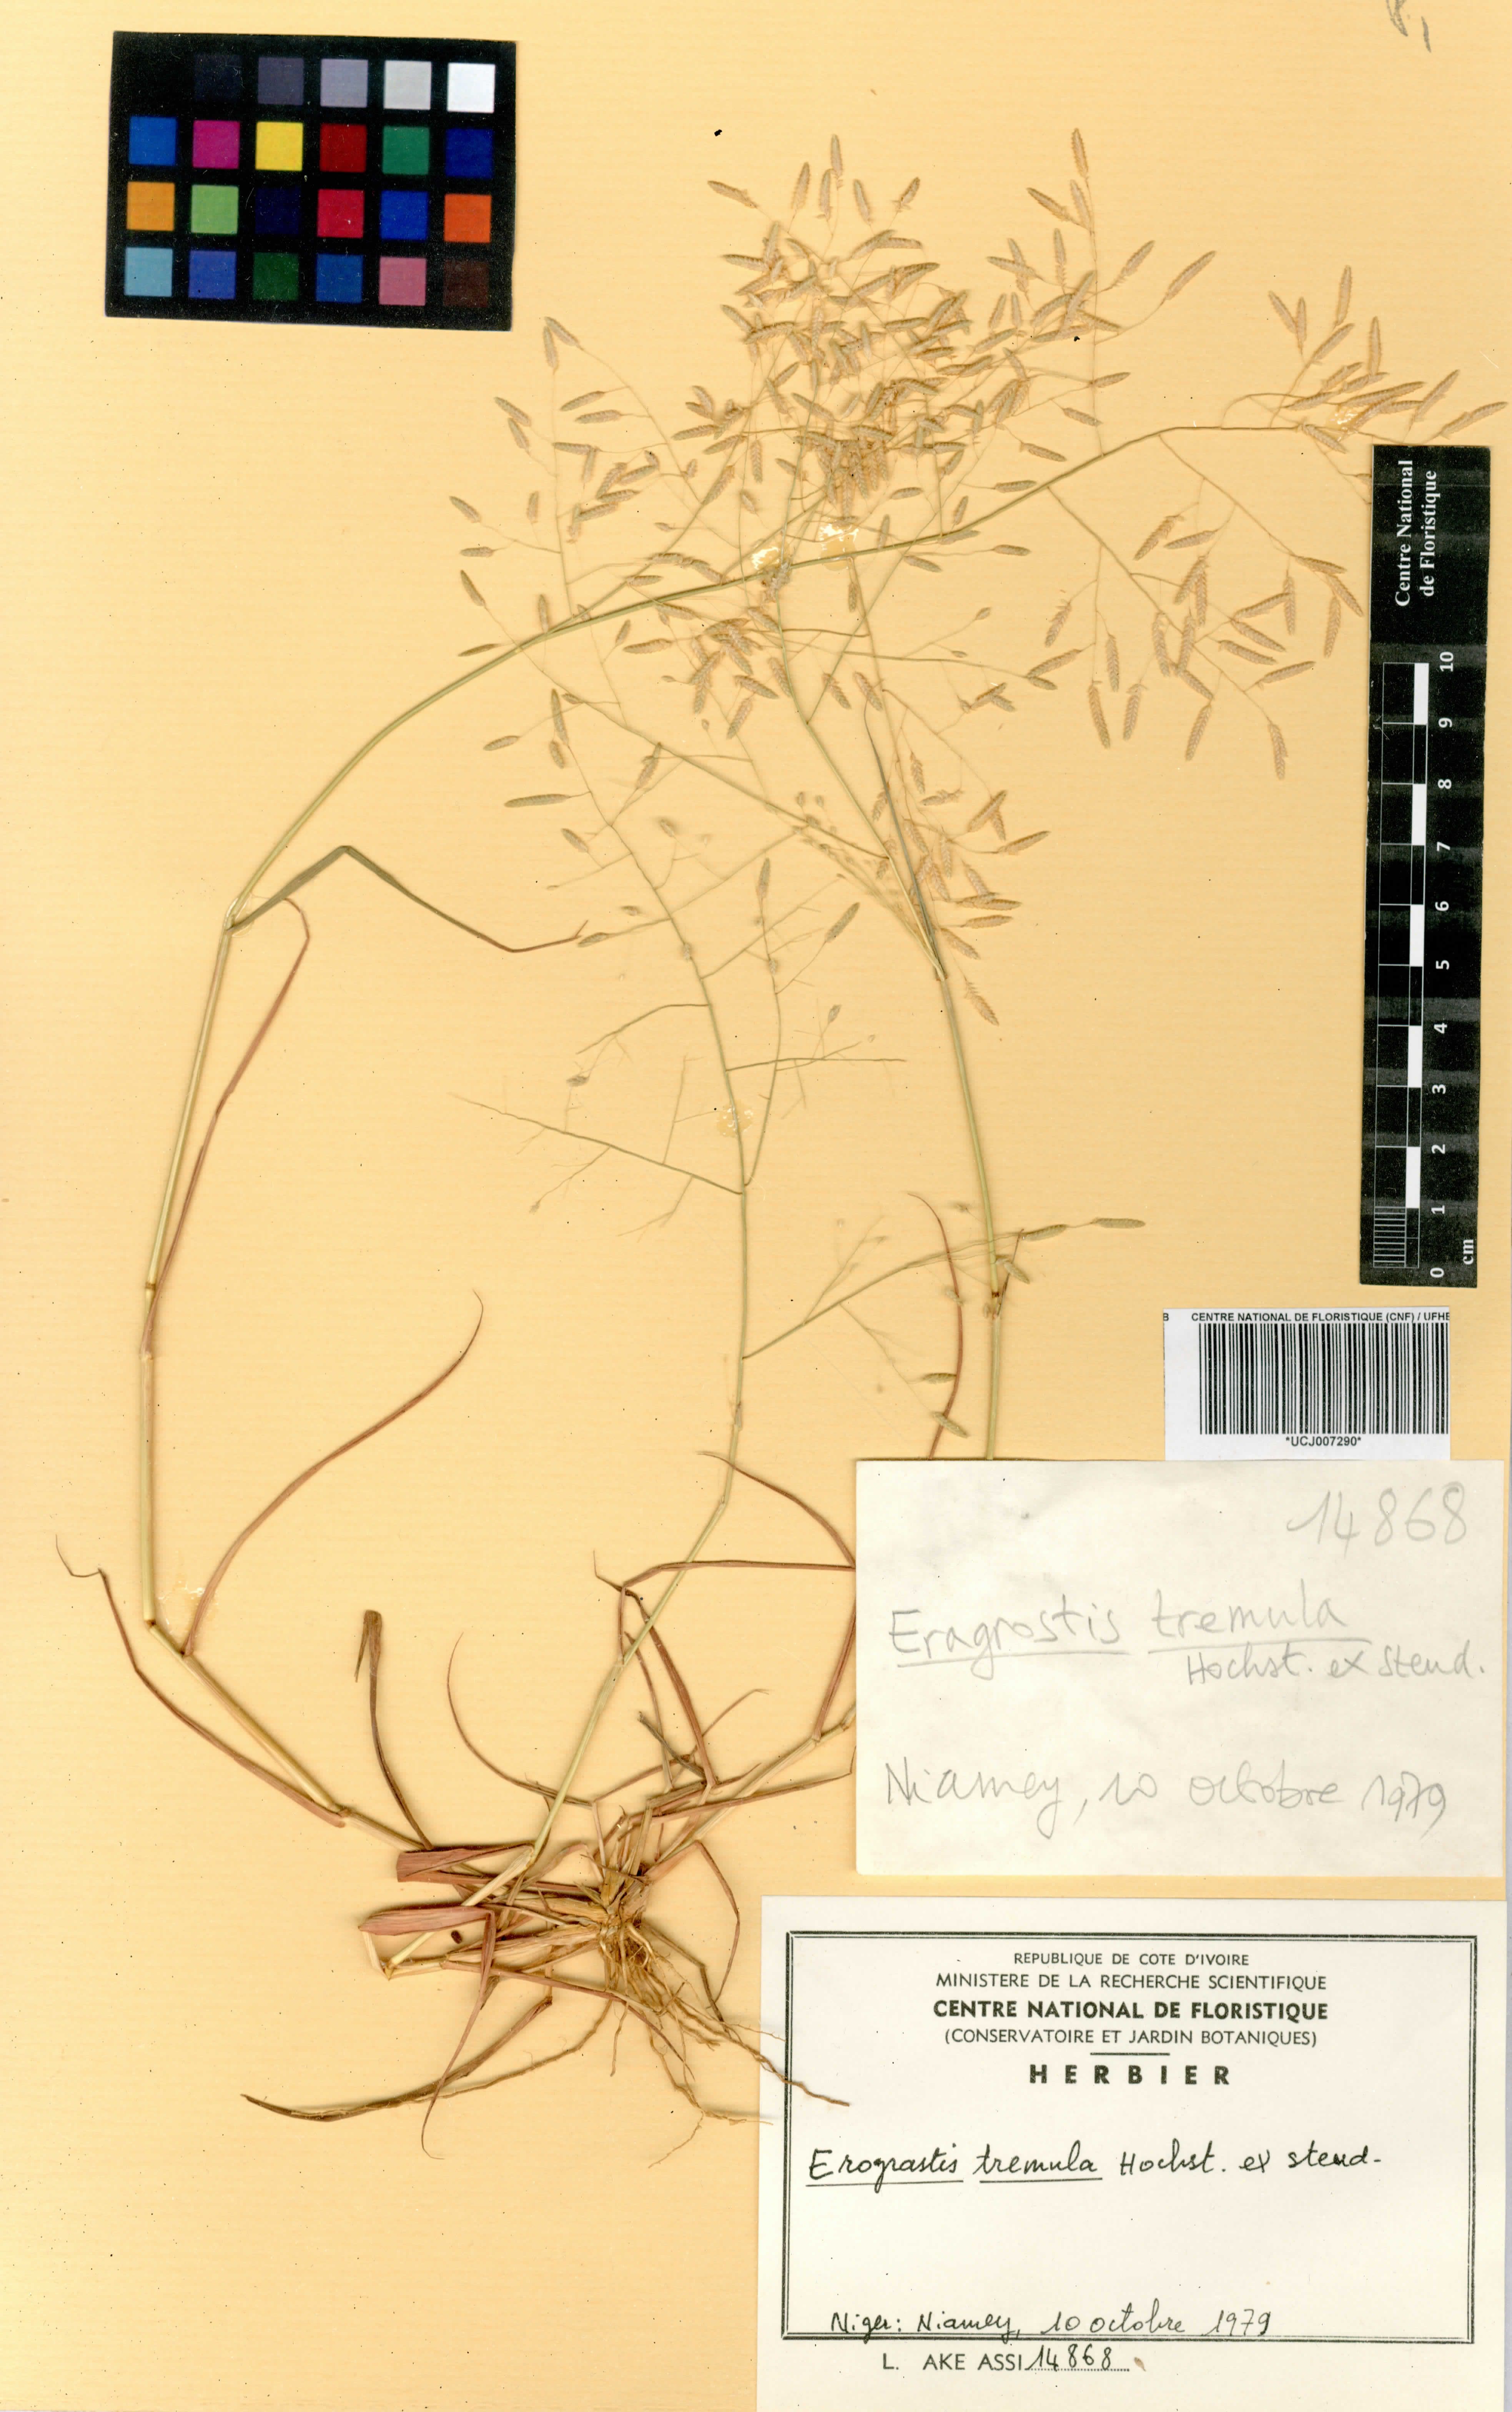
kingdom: Plantae
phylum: Tracheophyta
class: Liliopsida
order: Poales
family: Poaceae
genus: Eragrostis
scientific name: Eragrostis tremula
